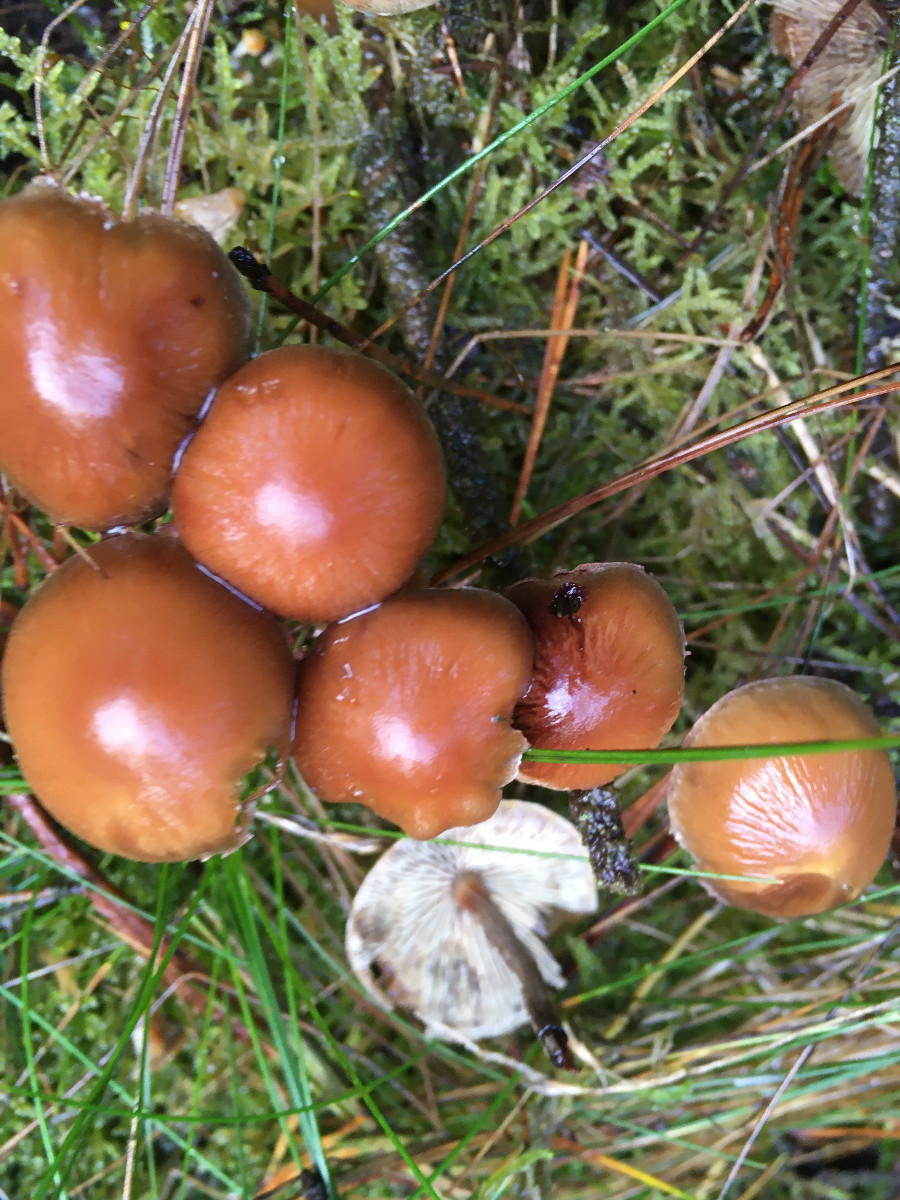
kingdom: Fungi
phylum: Basidiomycota
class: Agaricomycetes
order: Agaricales
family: Strophariaceae
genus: Hypholoma
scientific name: Hypholoma marginatum
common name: enlig svovlhat
